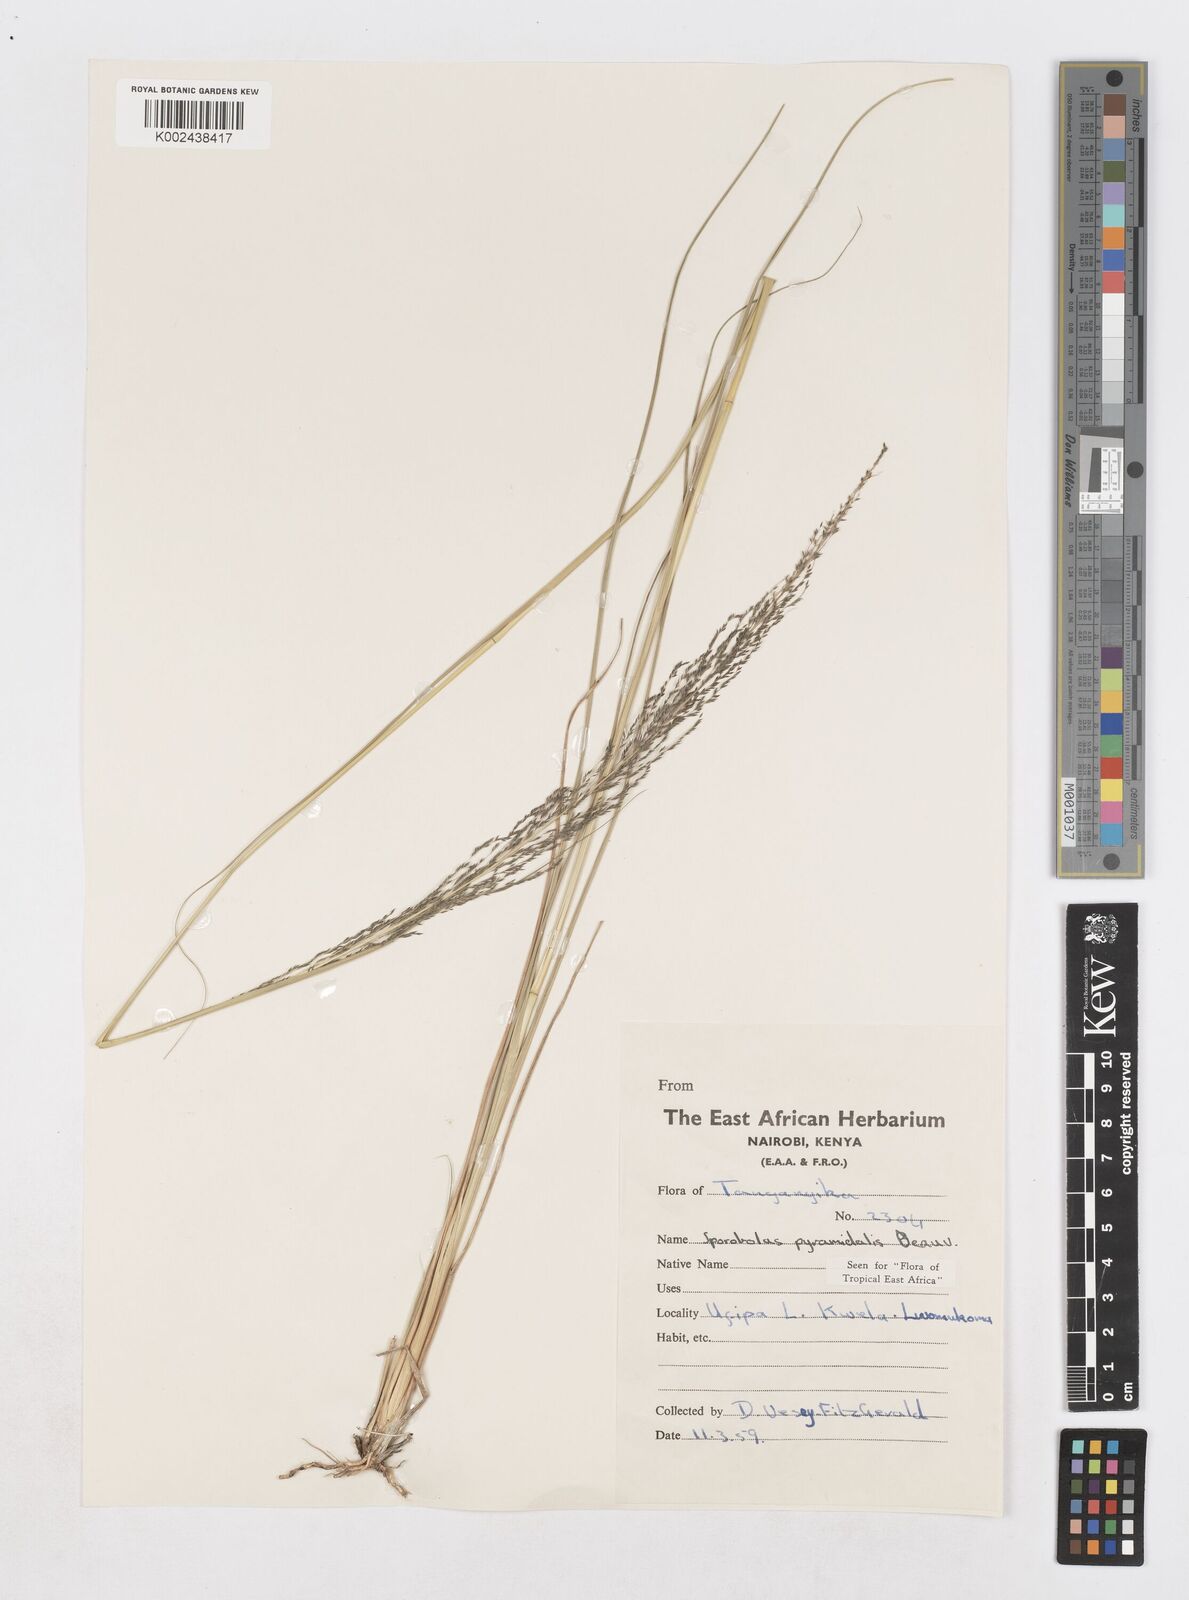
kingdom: Plantae
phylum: Tracheophyta
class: Liliopsida
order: Poales
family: Poaceae
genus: Sporobolus
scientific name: Sporobolus pyramidalis
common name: West indian dropseed
